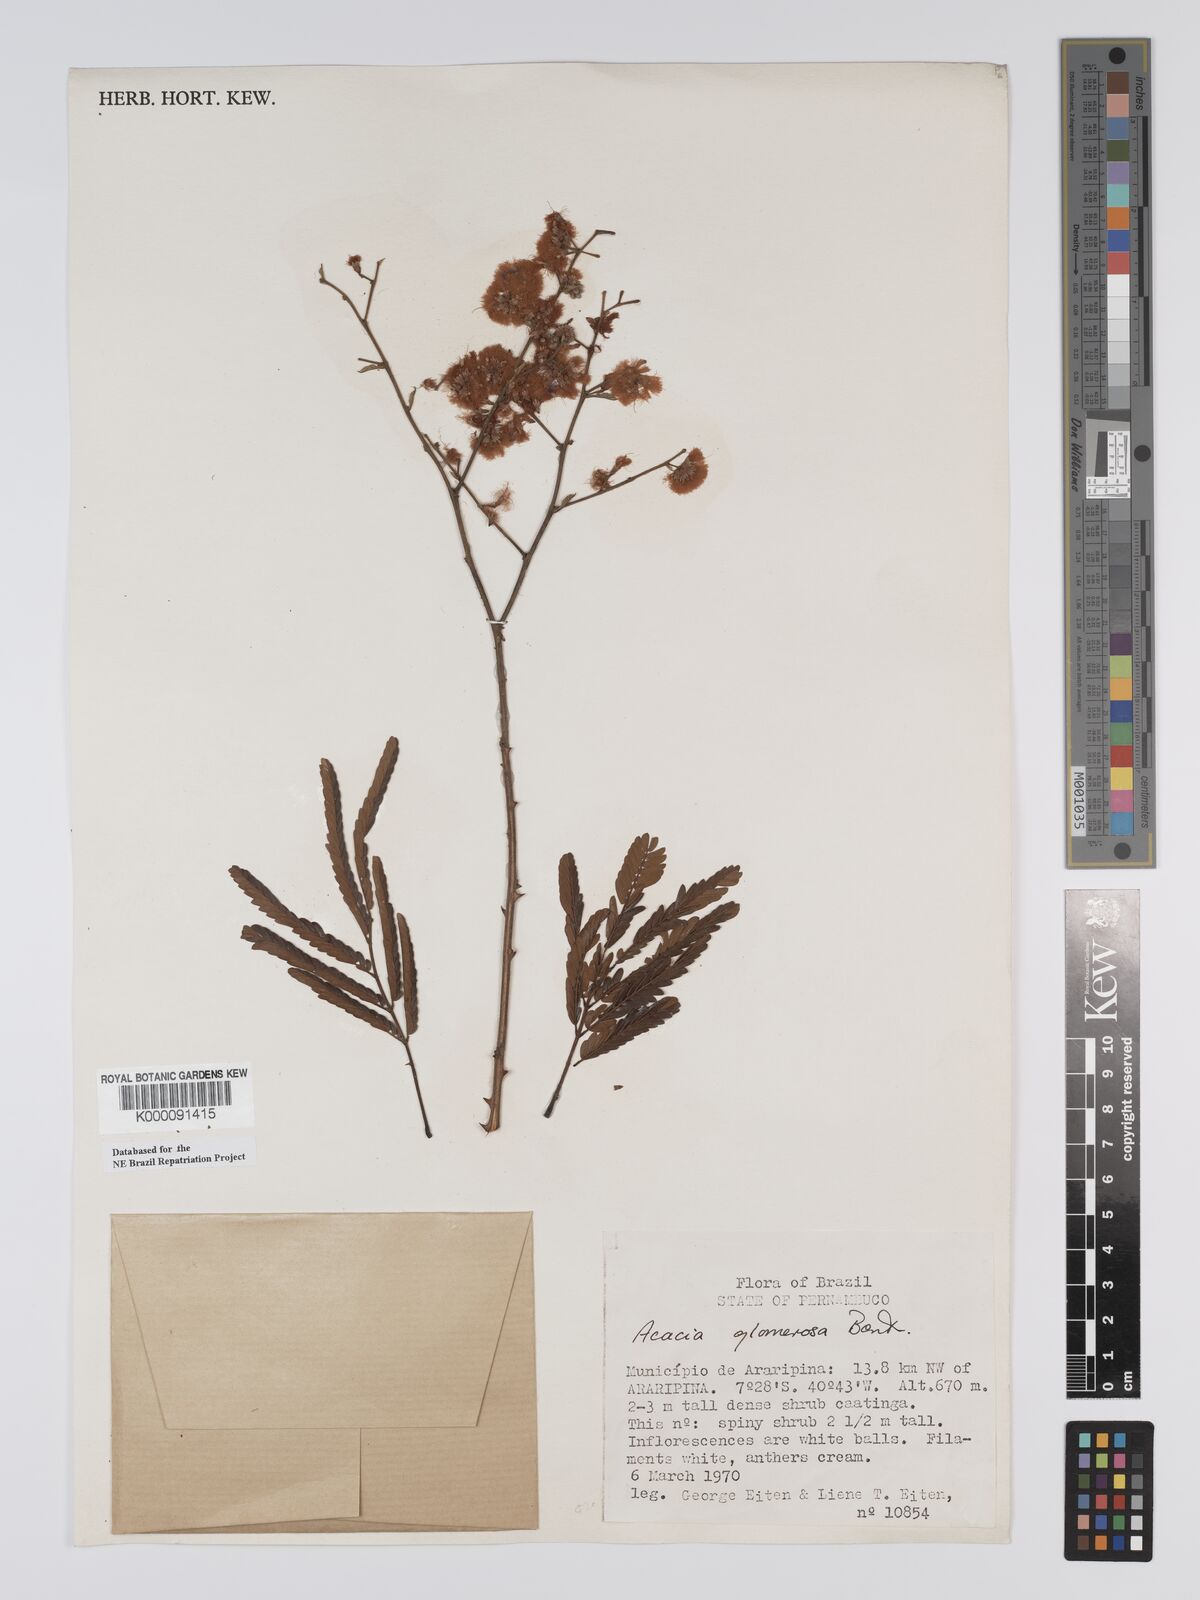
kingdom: Plantae
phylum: Tracheophyta
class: Magnoliopsida
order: Fabales
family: Fabaceae
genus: Senegalia
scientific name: Senegalia polyphylla
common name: White-tamarind
